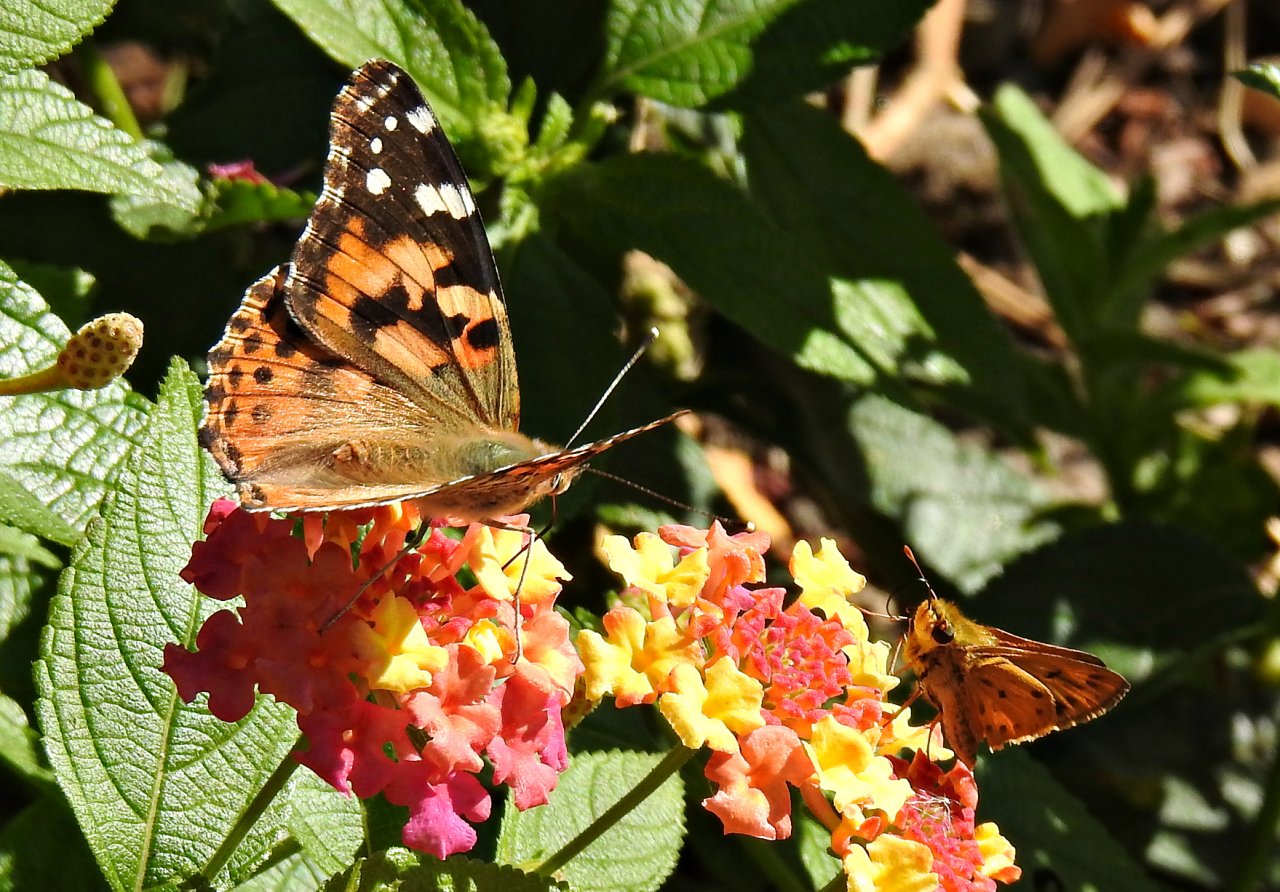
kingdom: Animalia
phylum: Arthropoda
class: Insecta
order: Lepidoptera
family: Nymphalidae
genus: Vanessa
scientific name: Vanessa cardui
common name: Painted Lady
